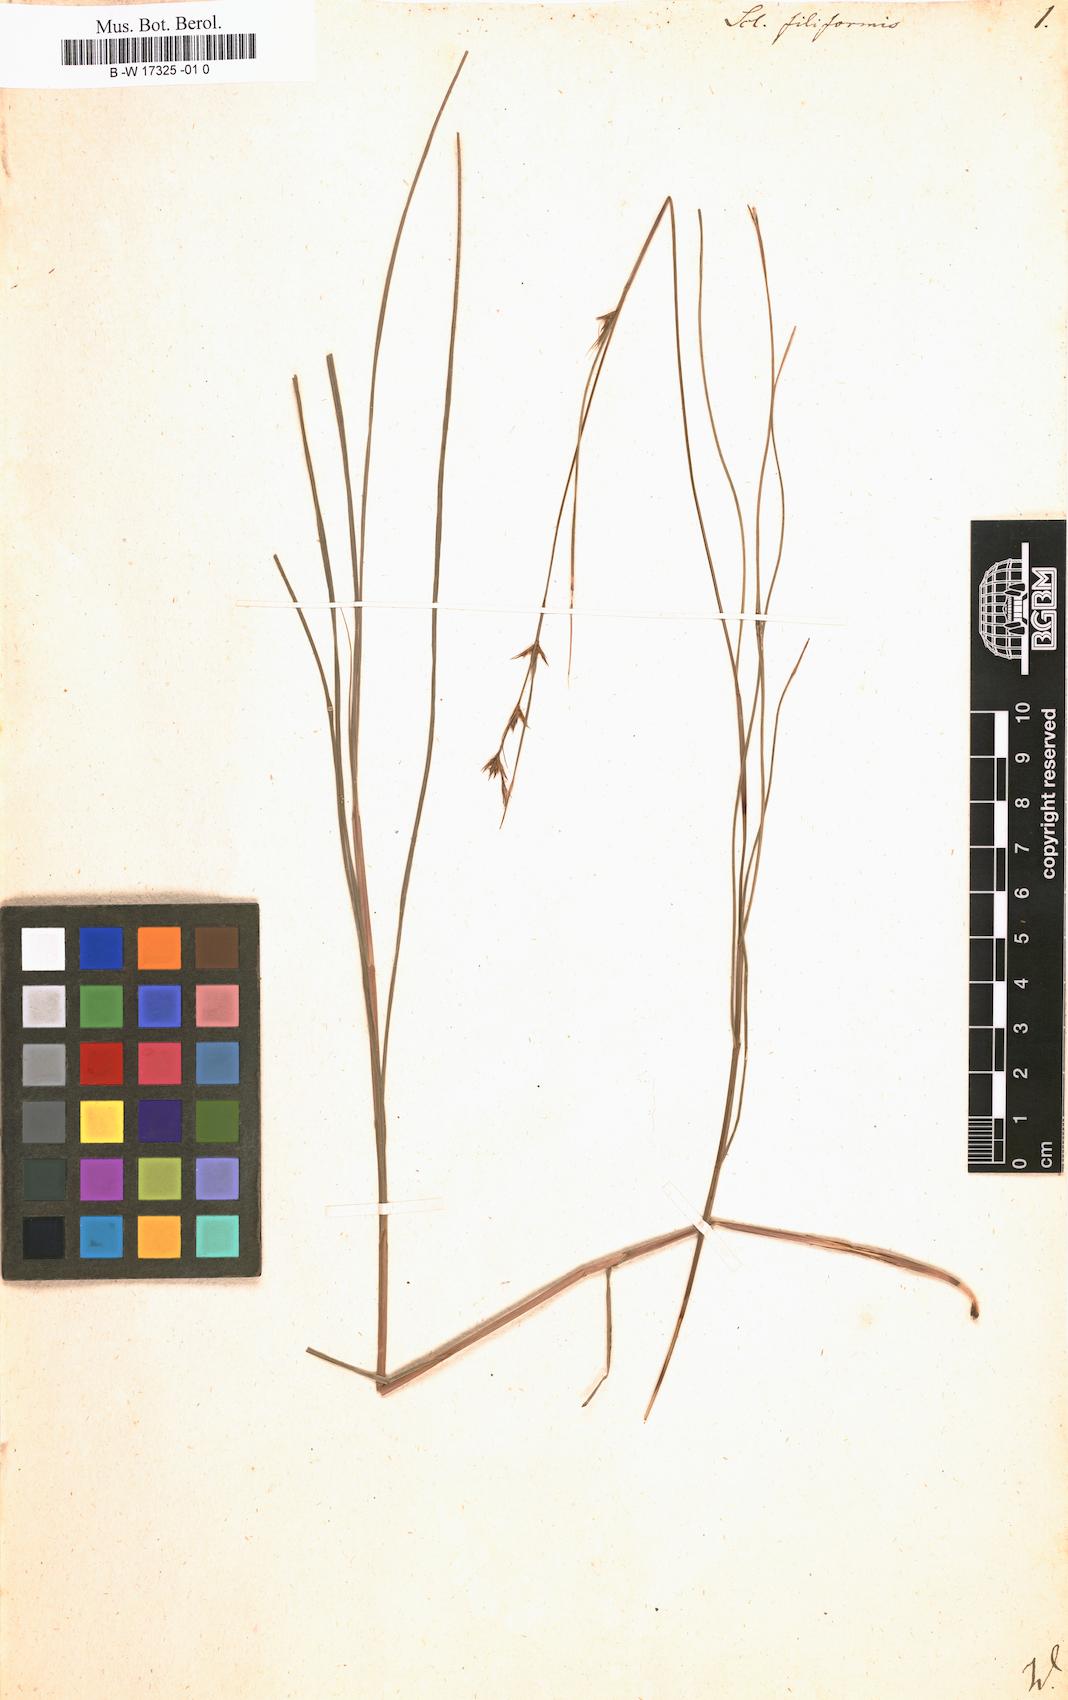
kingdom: Plantae
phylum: Tracheophyta
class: Liliopsida
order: Poales
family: Cyperaceae
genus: Scleria
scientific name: Scleria lithosperma
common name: Florida keys nut-rush
